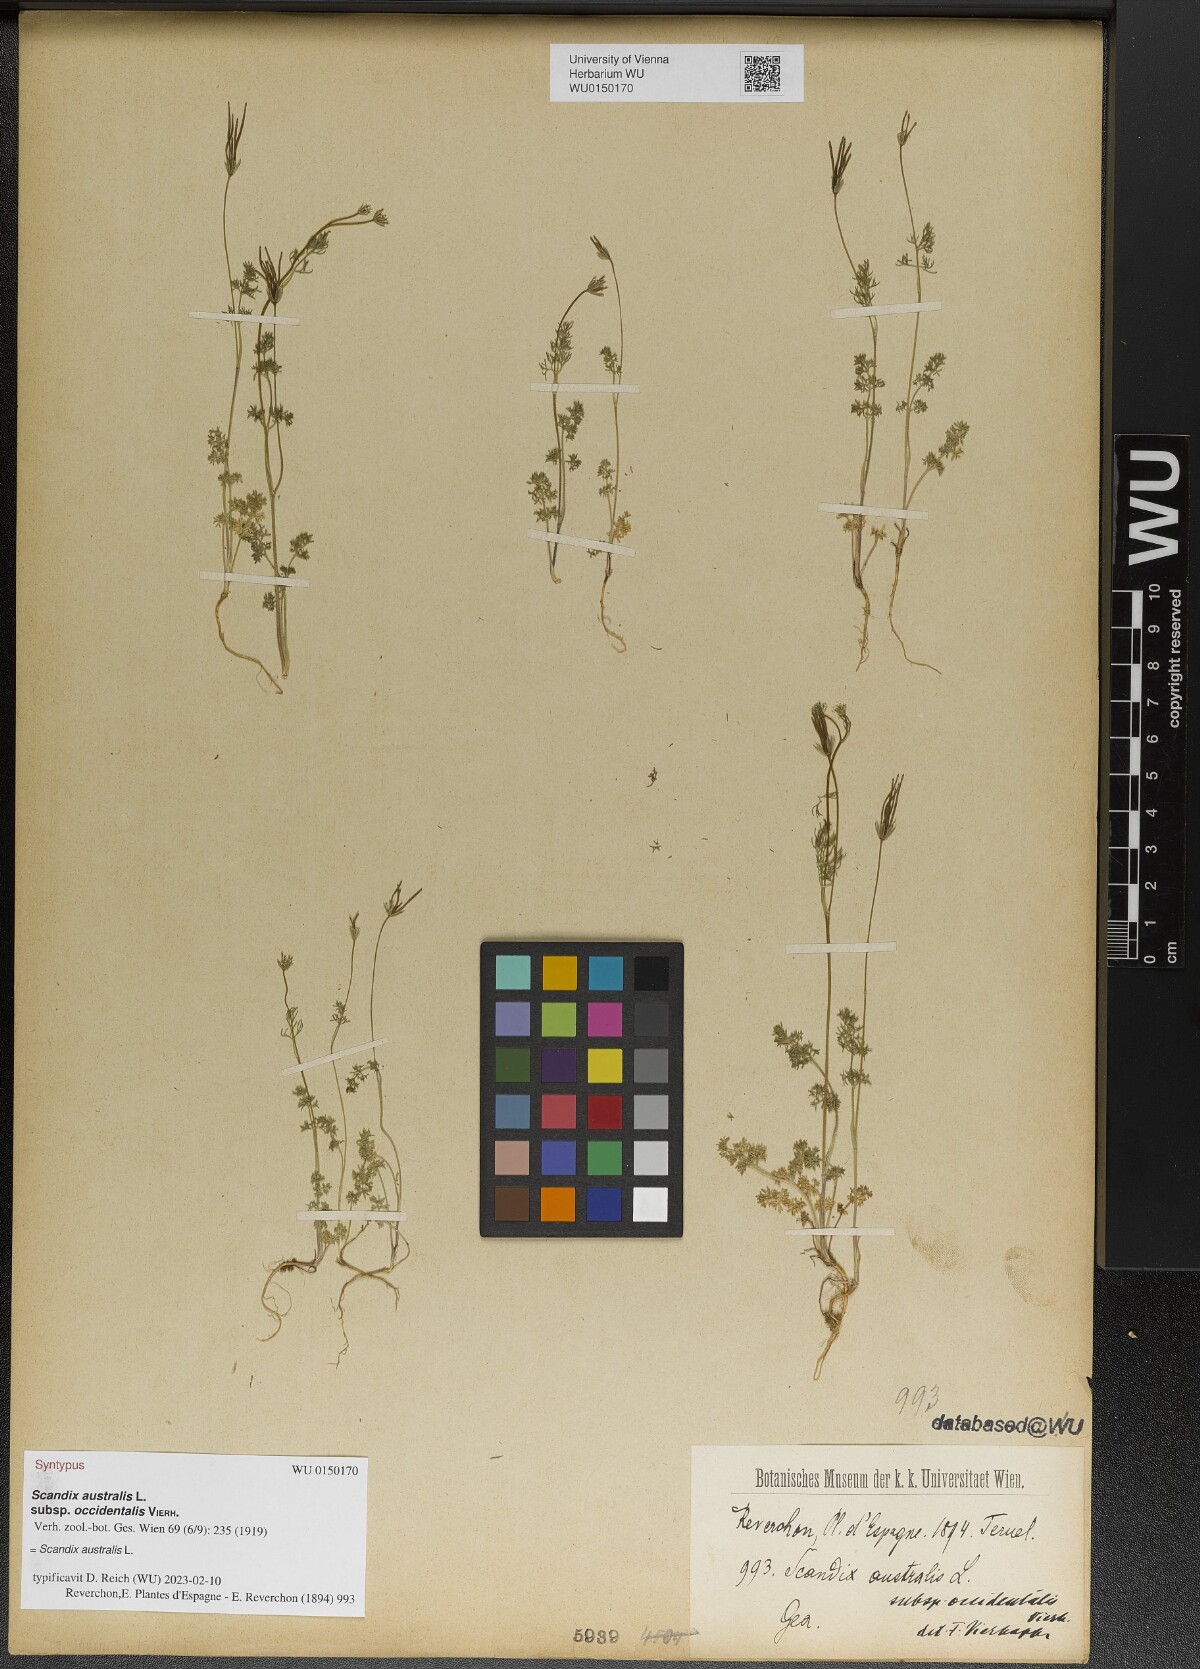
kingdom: Plantae
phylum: Tracheophyta
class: Magnoliopsida
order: Apiales
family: Apiaceae
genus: Scandix
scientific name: Scandix australis
